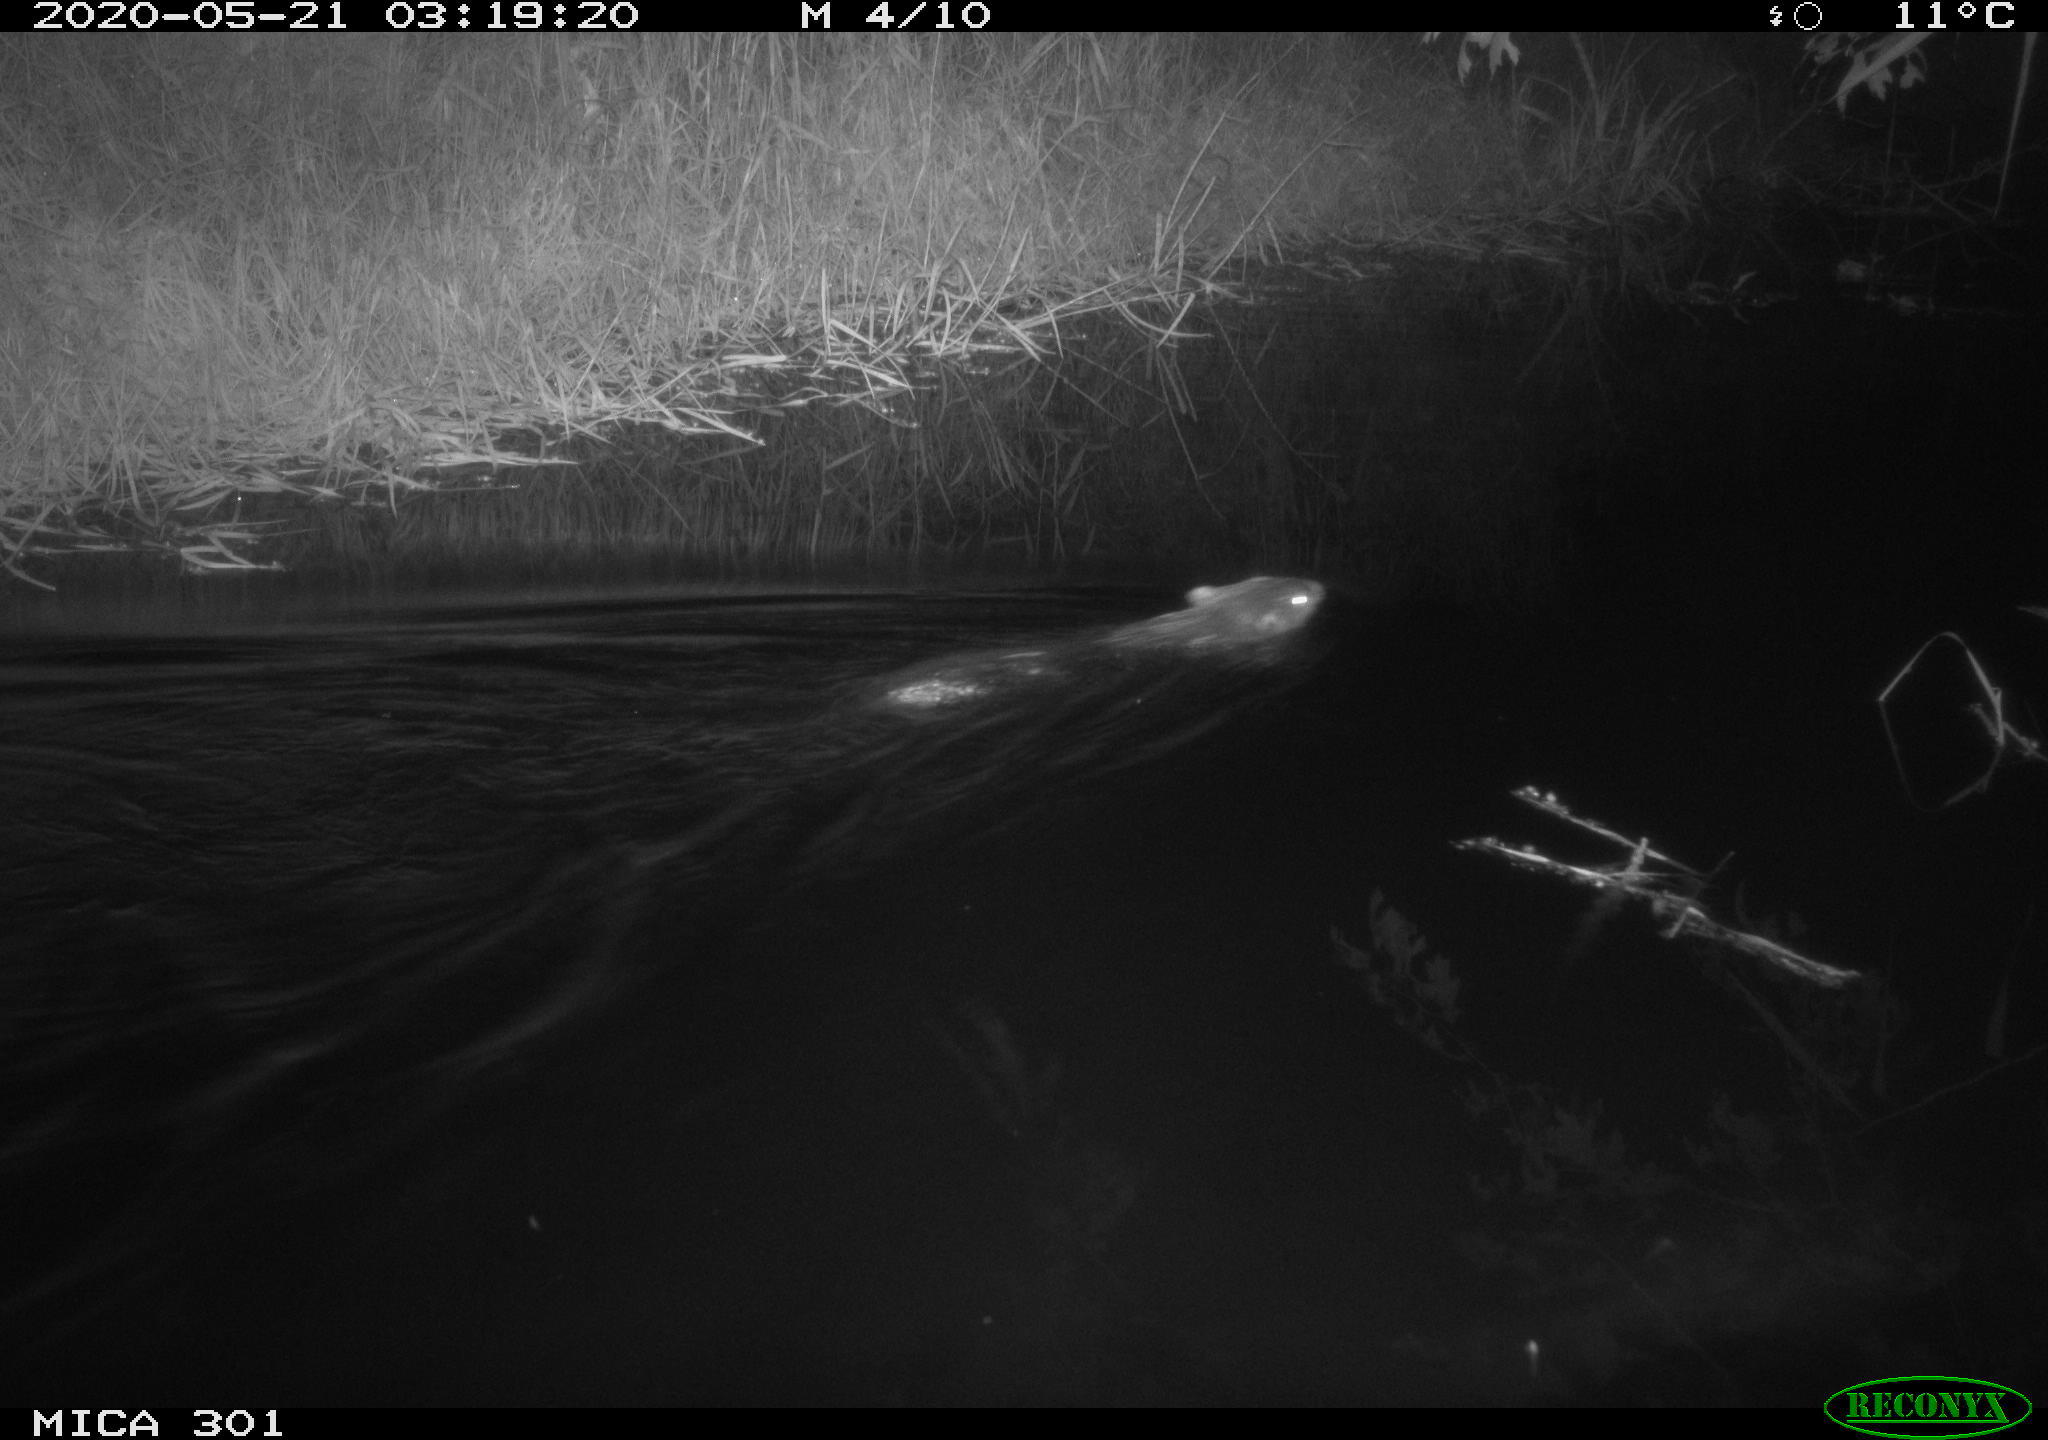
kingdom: Animalia
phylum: Chordata
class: Mammalia
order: Rodentia
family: Castoridae
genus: Castor
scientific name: Castor fiber
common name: Eurasian beaver
